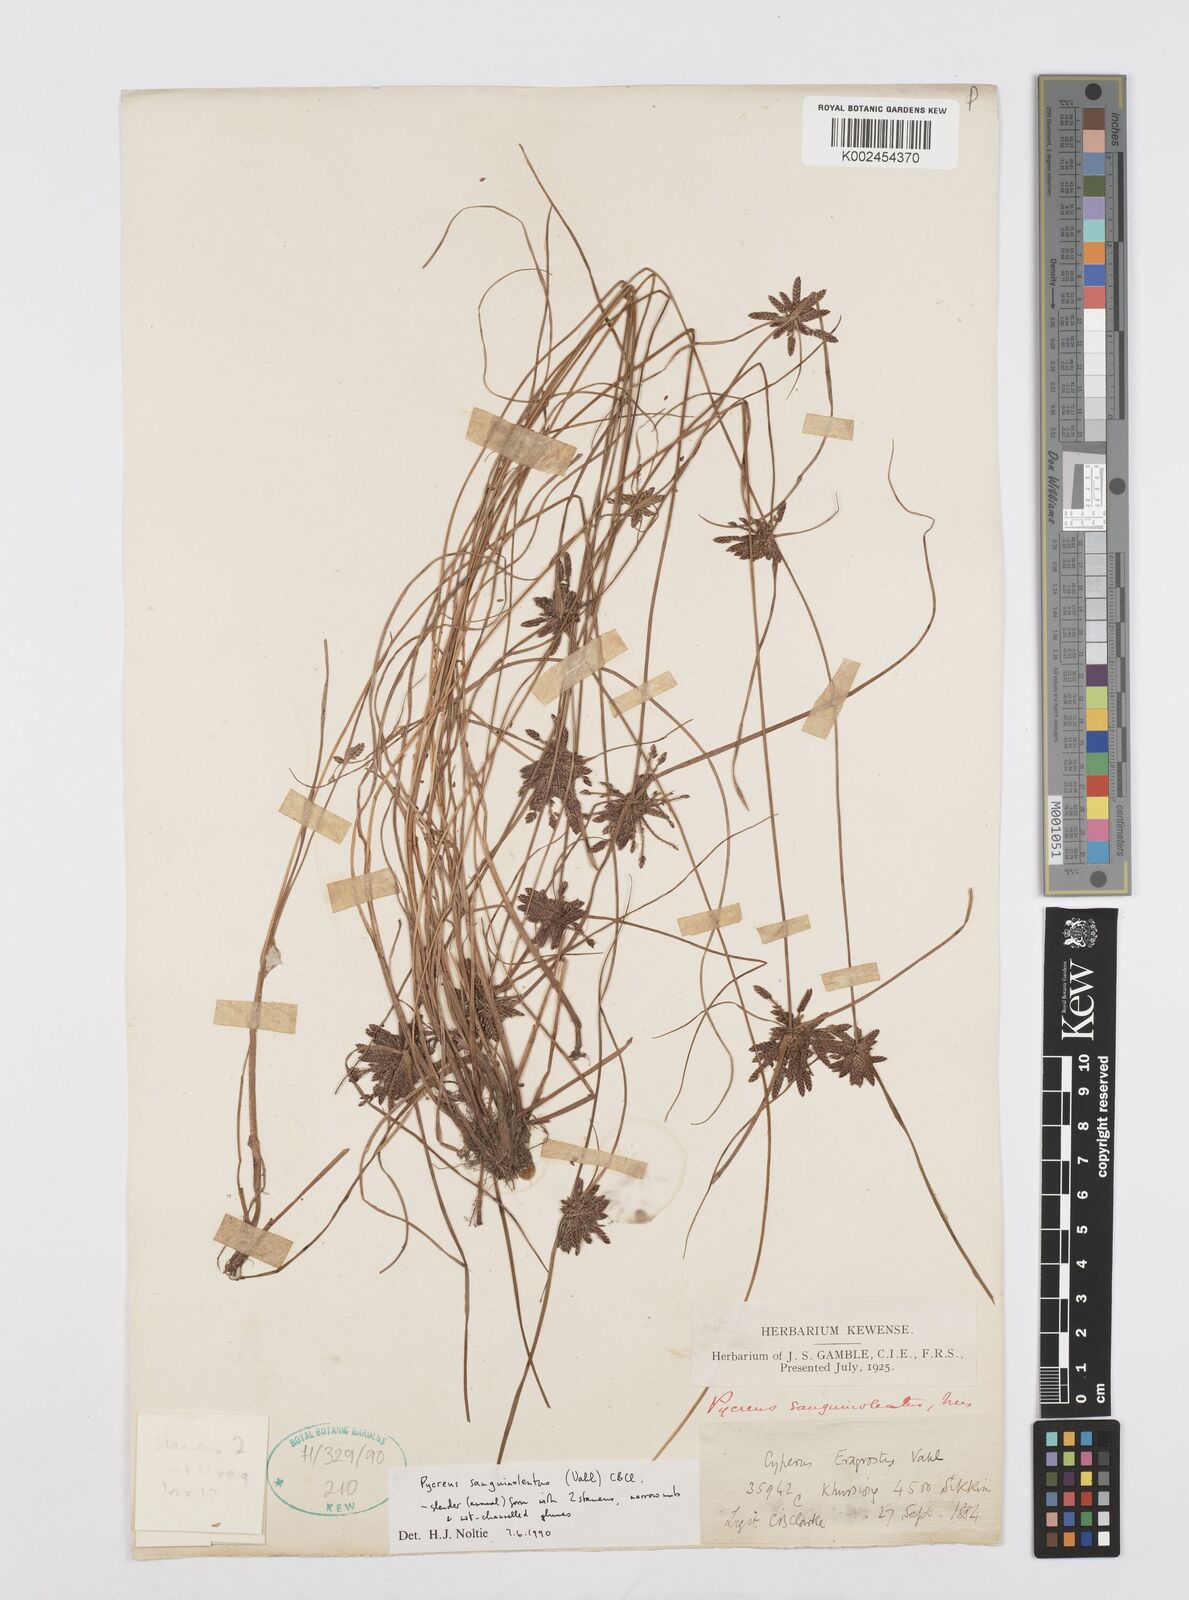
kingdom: Plantae
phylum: Tracheophyta
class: Liliopsida
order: Poales
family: Cyperaceae
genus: Cyperus
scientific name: Cyperus sanguinolentus
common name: Purpleglume flatsedge
